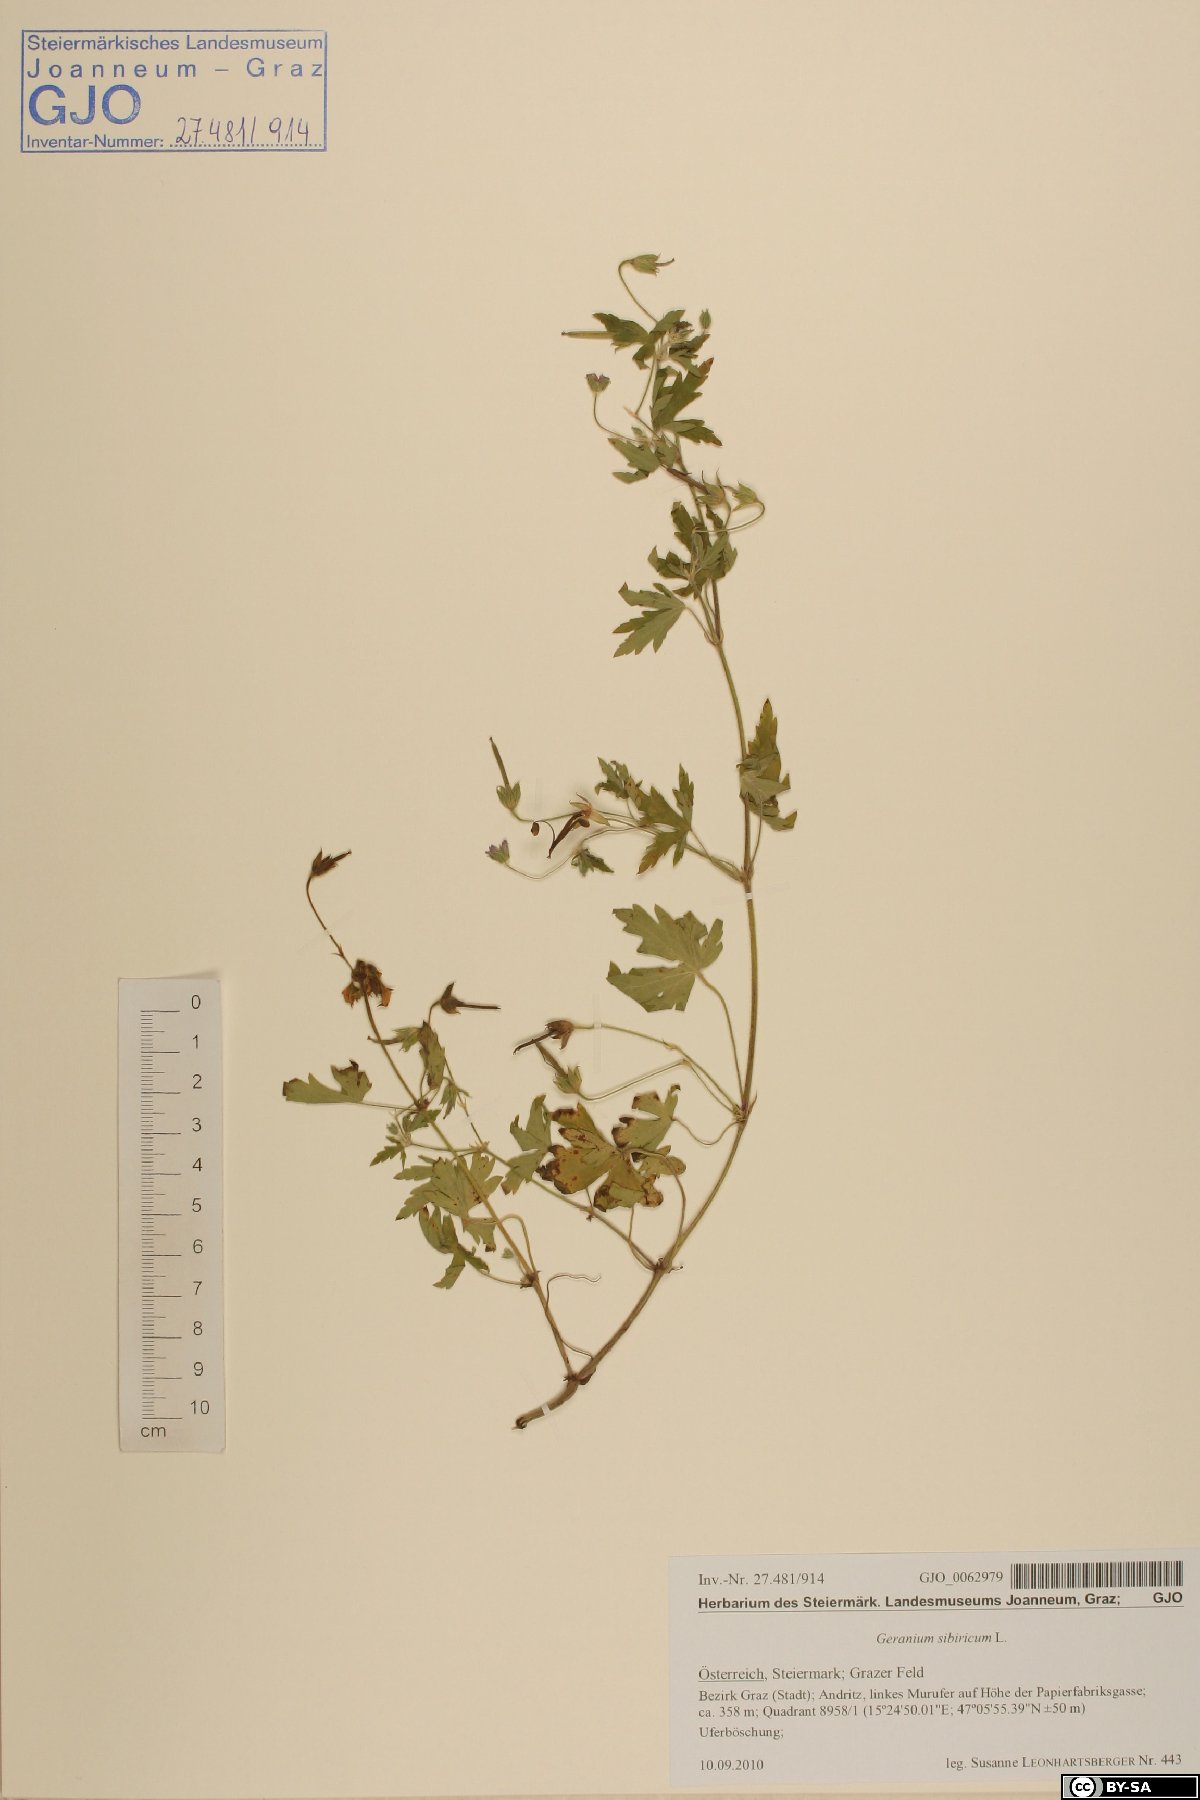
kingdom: Plantae
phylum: Tracheophyta
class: Magnoliopsida
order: Geraniales
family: Geraniaceae
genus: Geranium
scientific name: Geranium sibiricum
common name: Siberian crane's-bill
